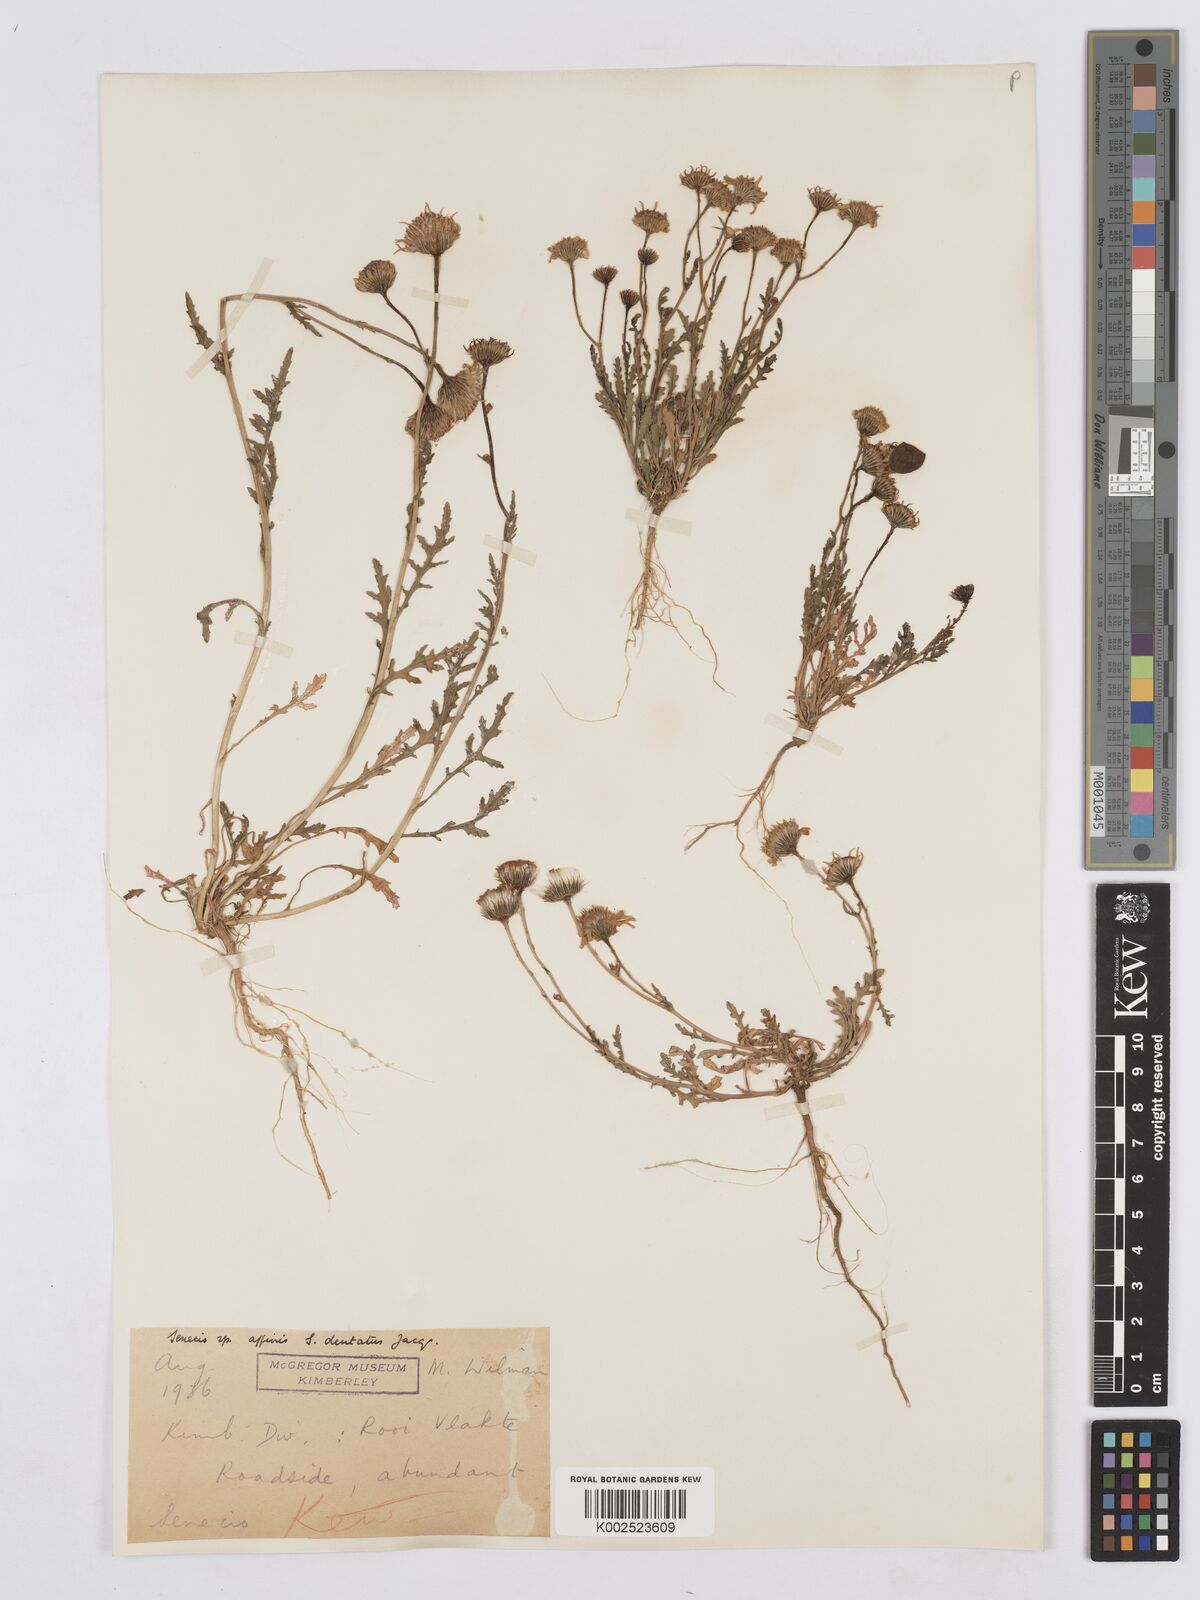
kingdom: Plantae
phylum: Tracheophyta
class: Magnoliopsida
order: Asterales
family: Asteraceae
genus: Senecio
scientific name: Senecio
